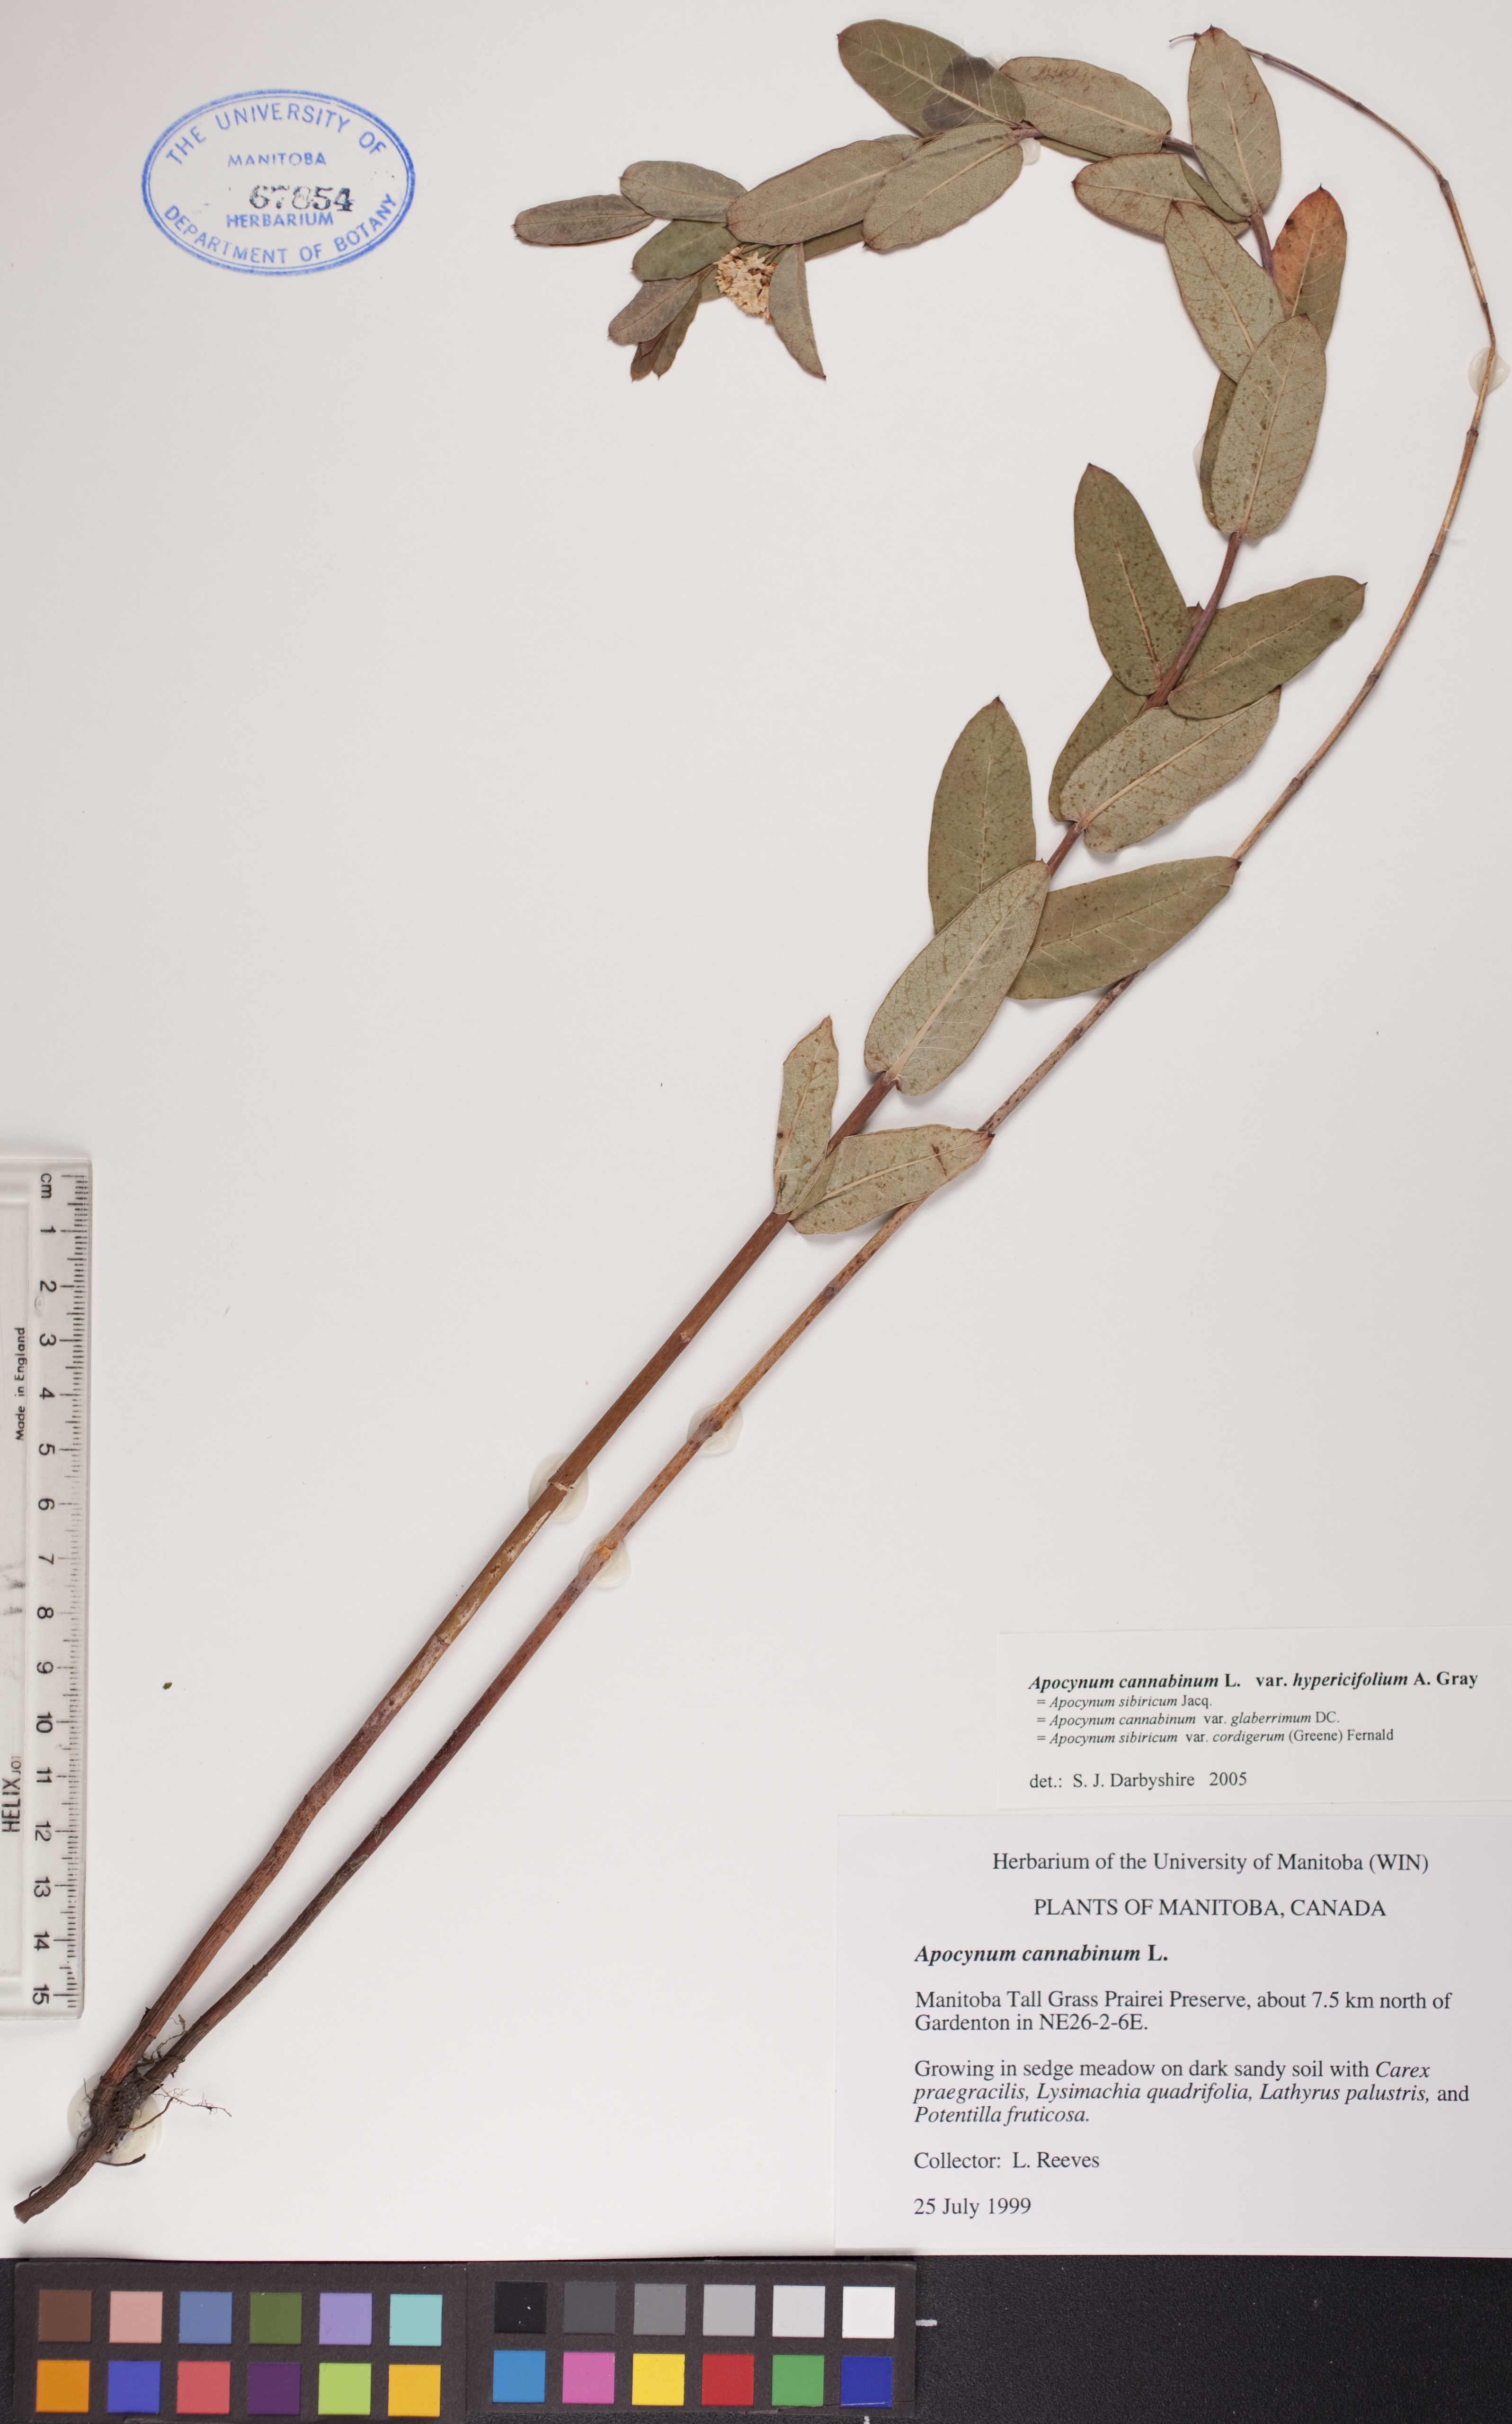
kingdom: Plantae
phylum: Tracheophyta
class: Magnoliopsida
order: Gentianales
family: Apocynaceae
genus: Apocynum
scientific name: Apocynum cannabinum
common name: Hemp dogbane
